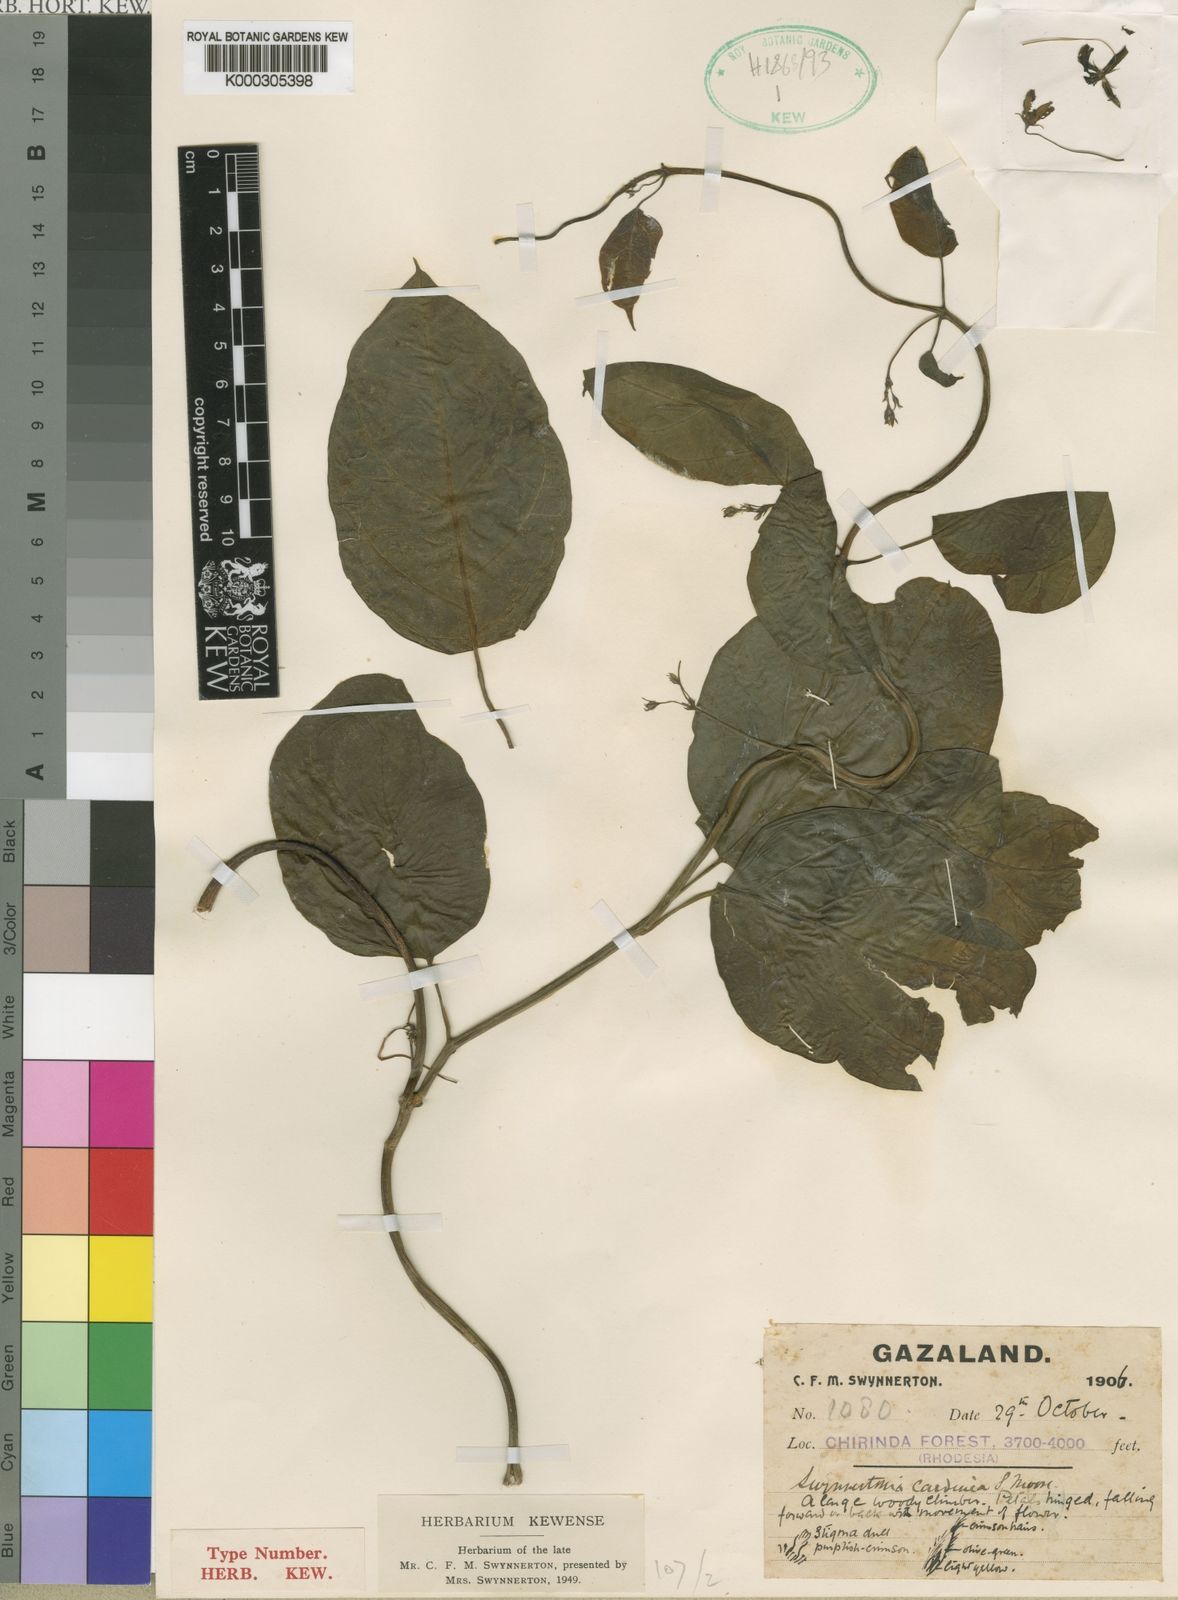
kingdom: Plantae
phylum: Tracheophyta
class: Magnoliopsida
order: Gentianales
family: Apocynaceae
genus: Neoschumannia
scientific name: Neoschumannia cardinea
